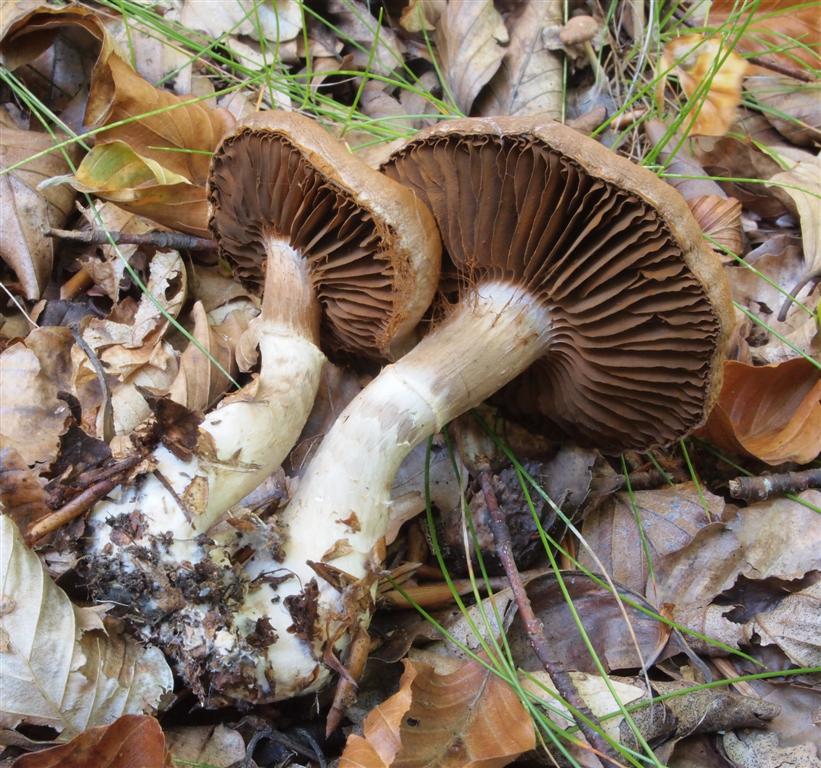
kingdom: Fungi
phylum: Basidiomycota
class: Agaricomycetes
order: Agaricales
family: Cortinariaceae
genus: Cortinarius
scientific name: Cortinarius torvus
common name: champignonagtig slørhat
